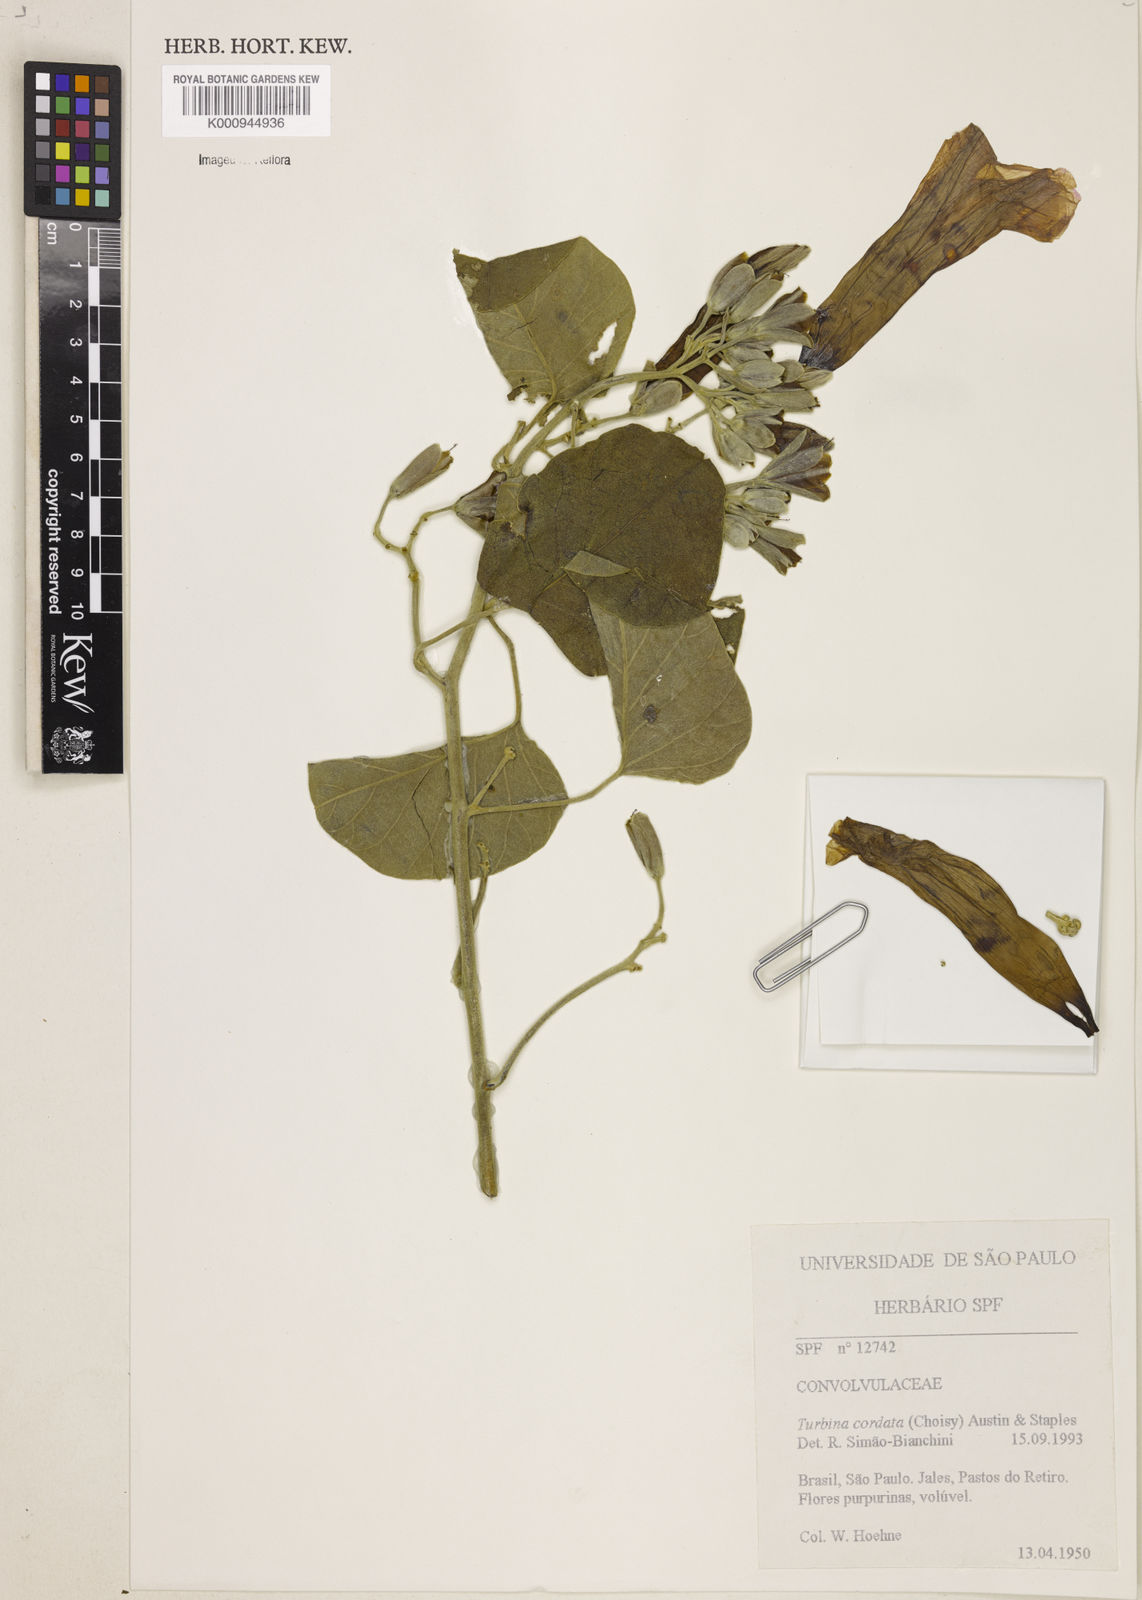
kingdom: Plantae
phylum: Tracheophyta
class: Magnoliopsida
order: Solanales
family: Convolvulaceae
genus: Ipomoea
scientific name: Ipomoea sericosepala
